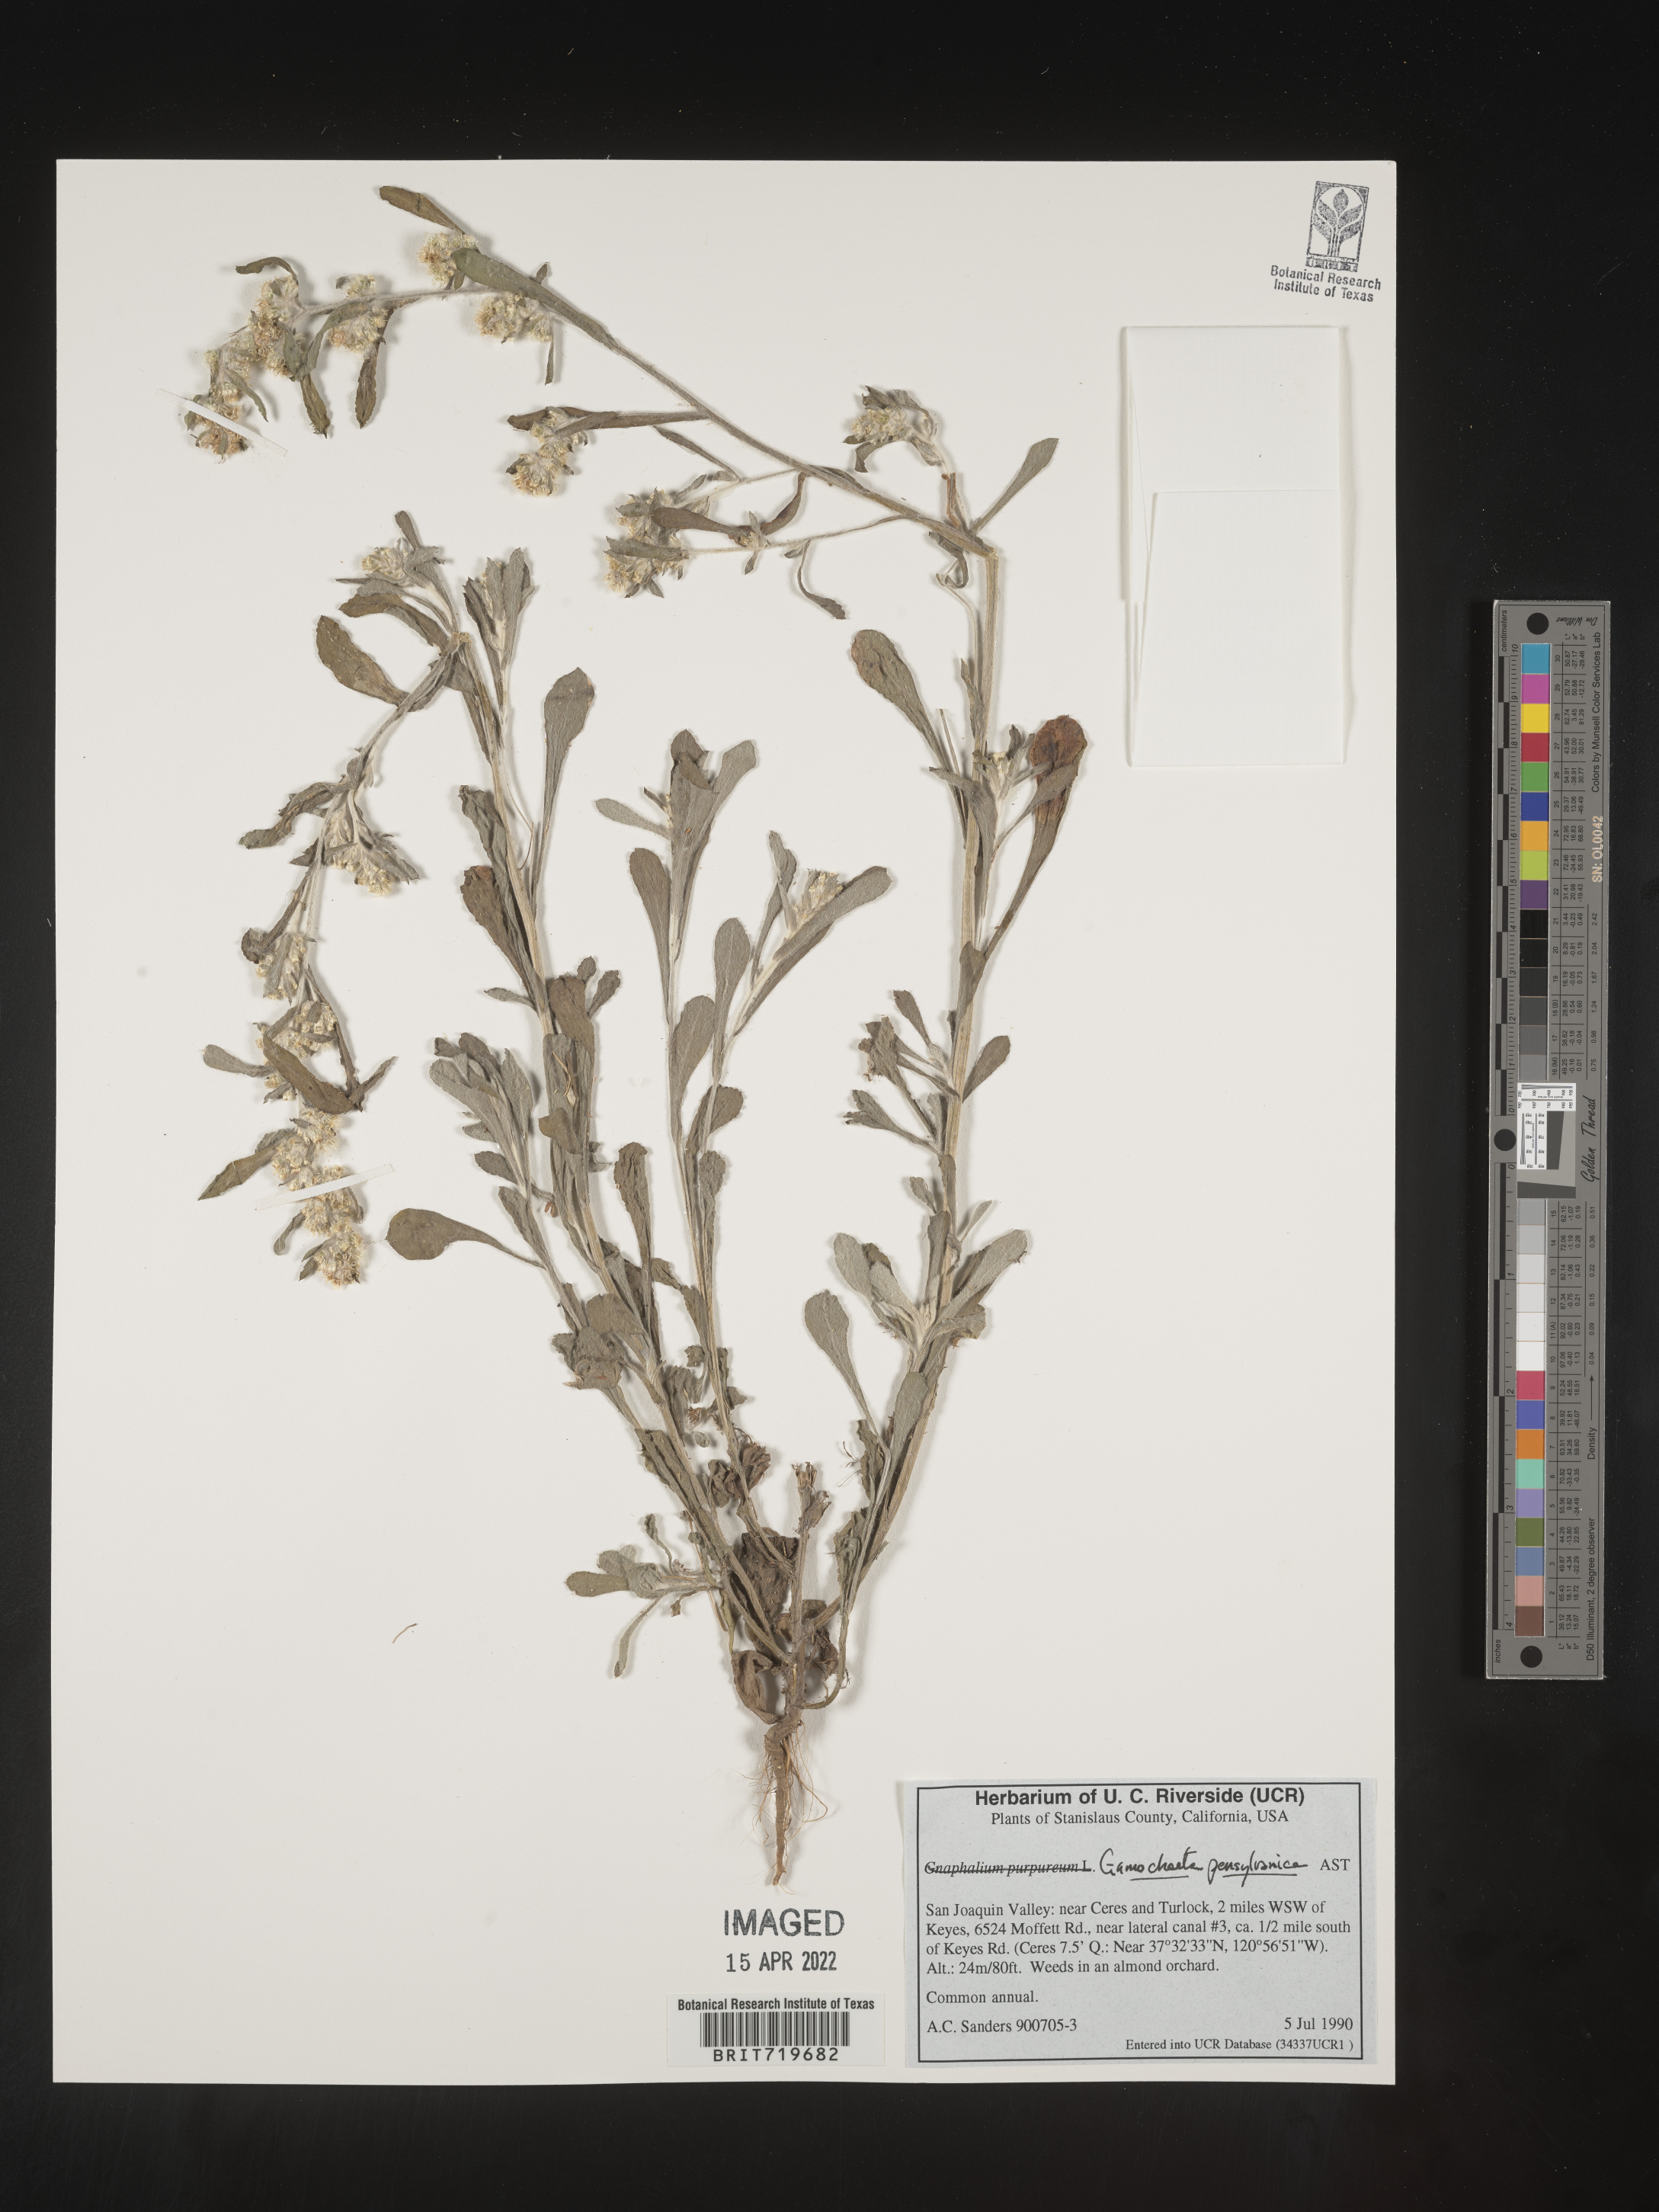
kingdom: Plantae
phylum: Tracheophyta
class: Magnoliopsida
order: Asterales
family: Asteraceae
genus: Gamochaeta
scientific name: Gamochaeta pensylvanica
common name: Pennsylvania everlasting
